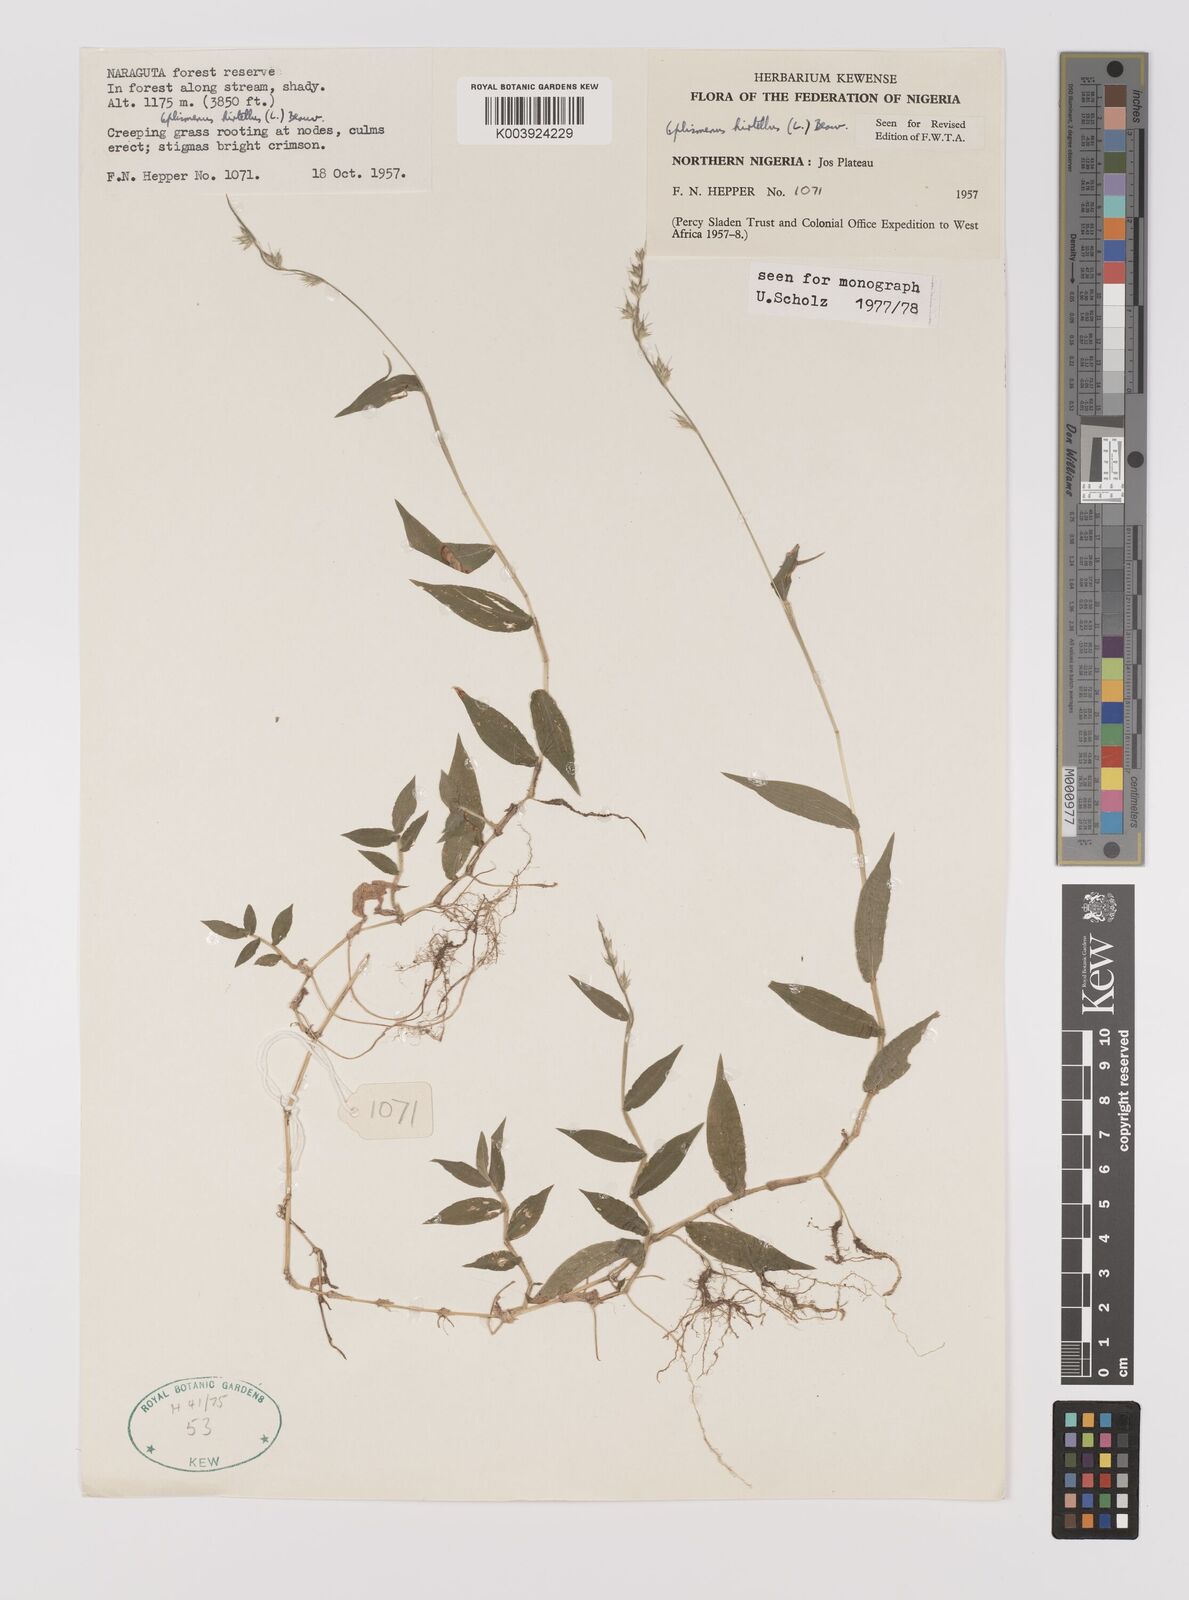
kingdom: Plantae
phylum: Tracheophyta
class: Liliopsida
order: Poales
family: Poaceae
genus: Oplismenus
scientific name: Oplismenus hirtellus
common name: Basketgrass
